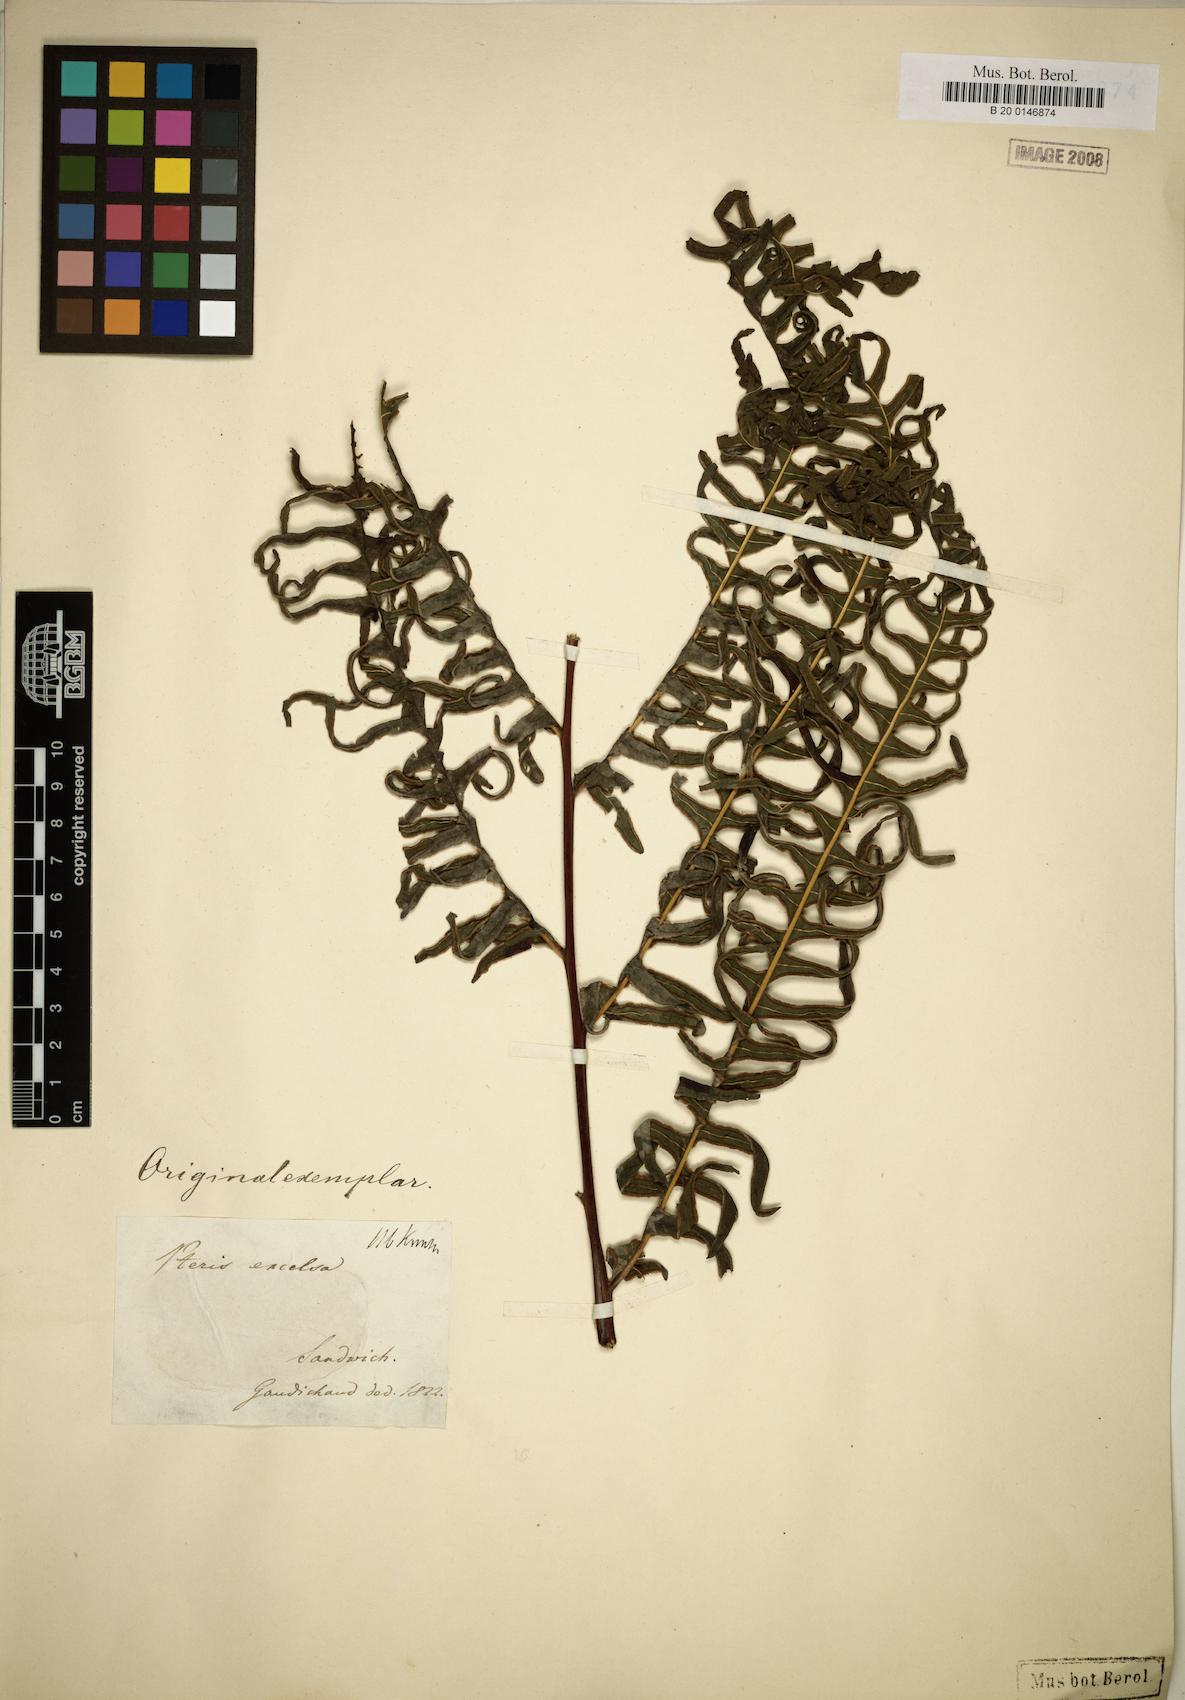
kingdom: Plantae
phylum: Tracheophyta
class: Polypodiopsida
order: Polypodiales
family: Pteridaceae
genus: Pteris
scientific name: Pteris terminalis
